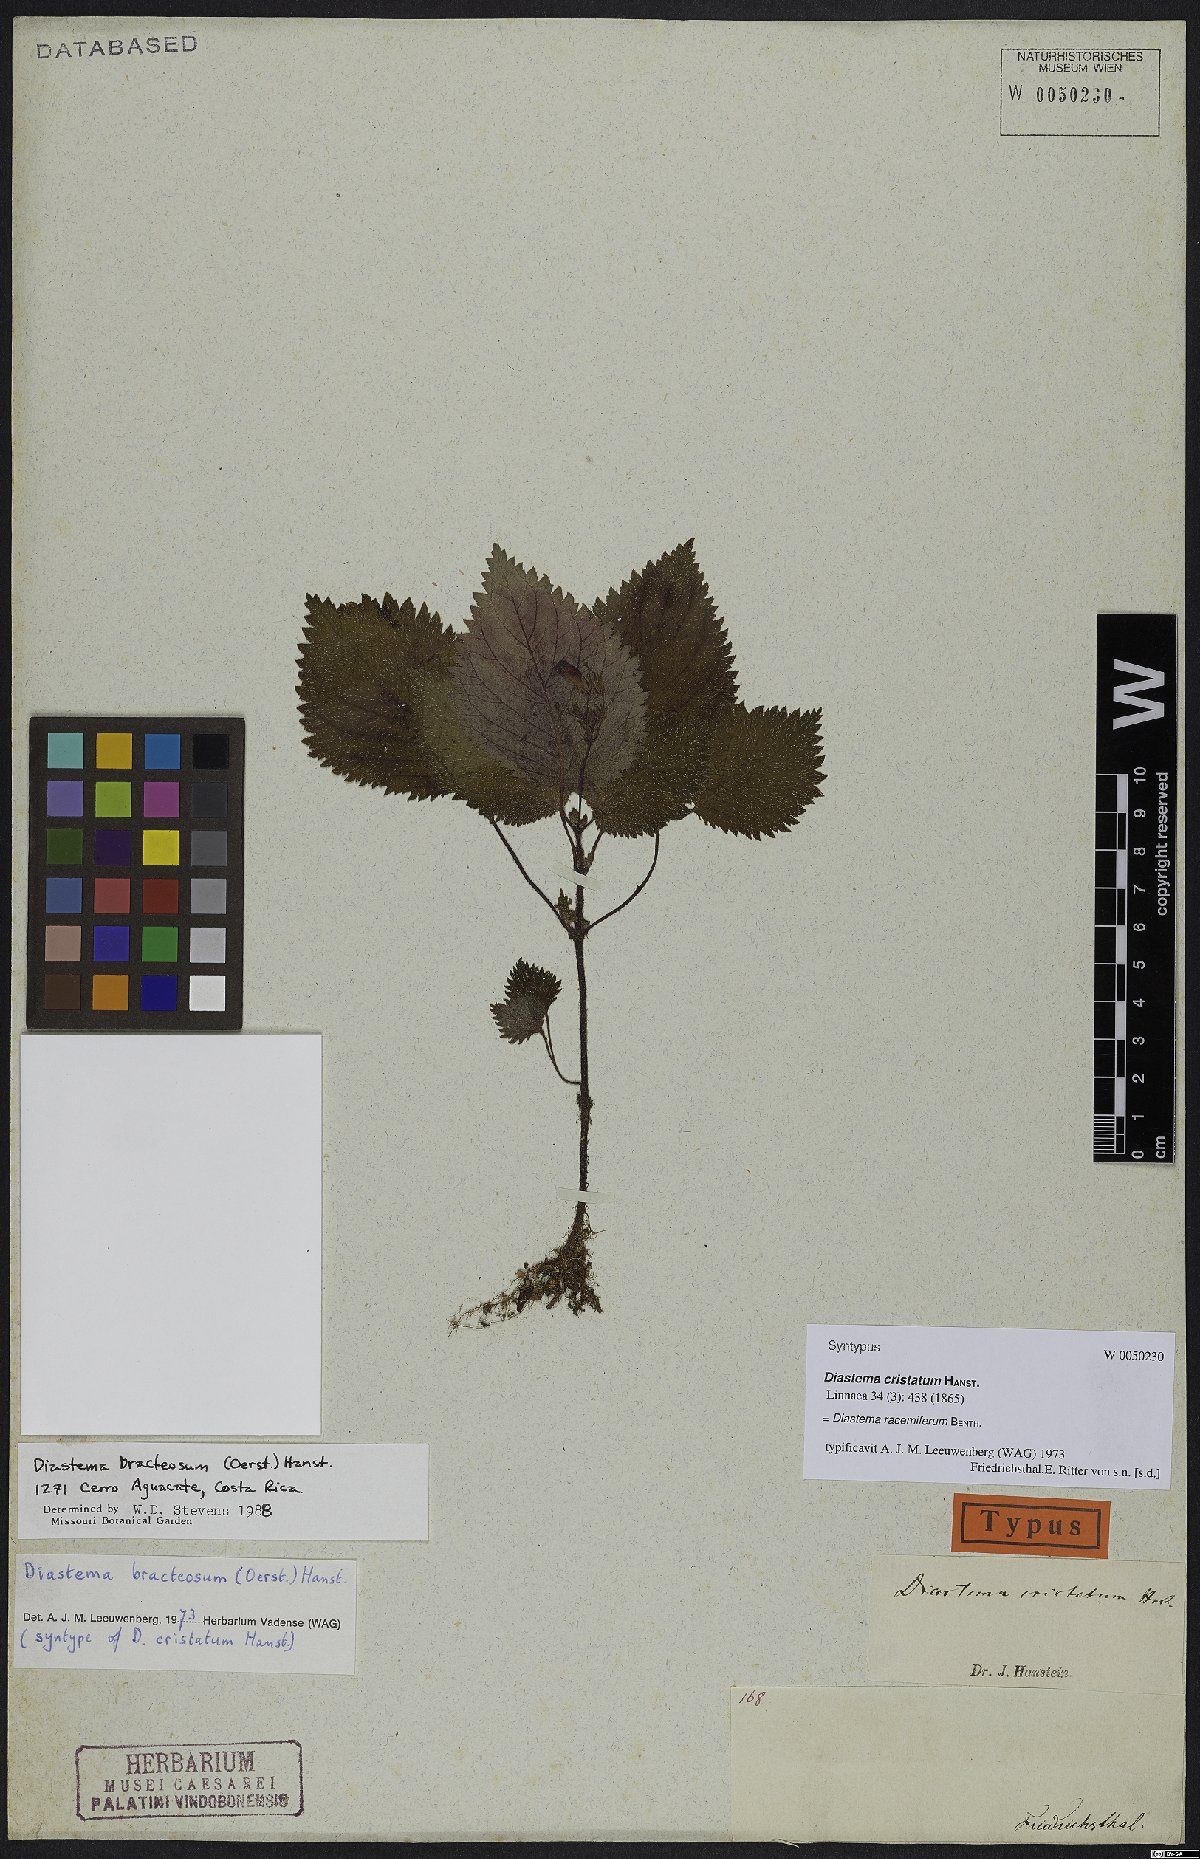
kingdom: Plantae
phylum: Tracheophyta
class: Magnoliopsida
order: Lamiales
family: Gesneriaceae
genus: Diastema
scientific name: Diastema racemiferum
